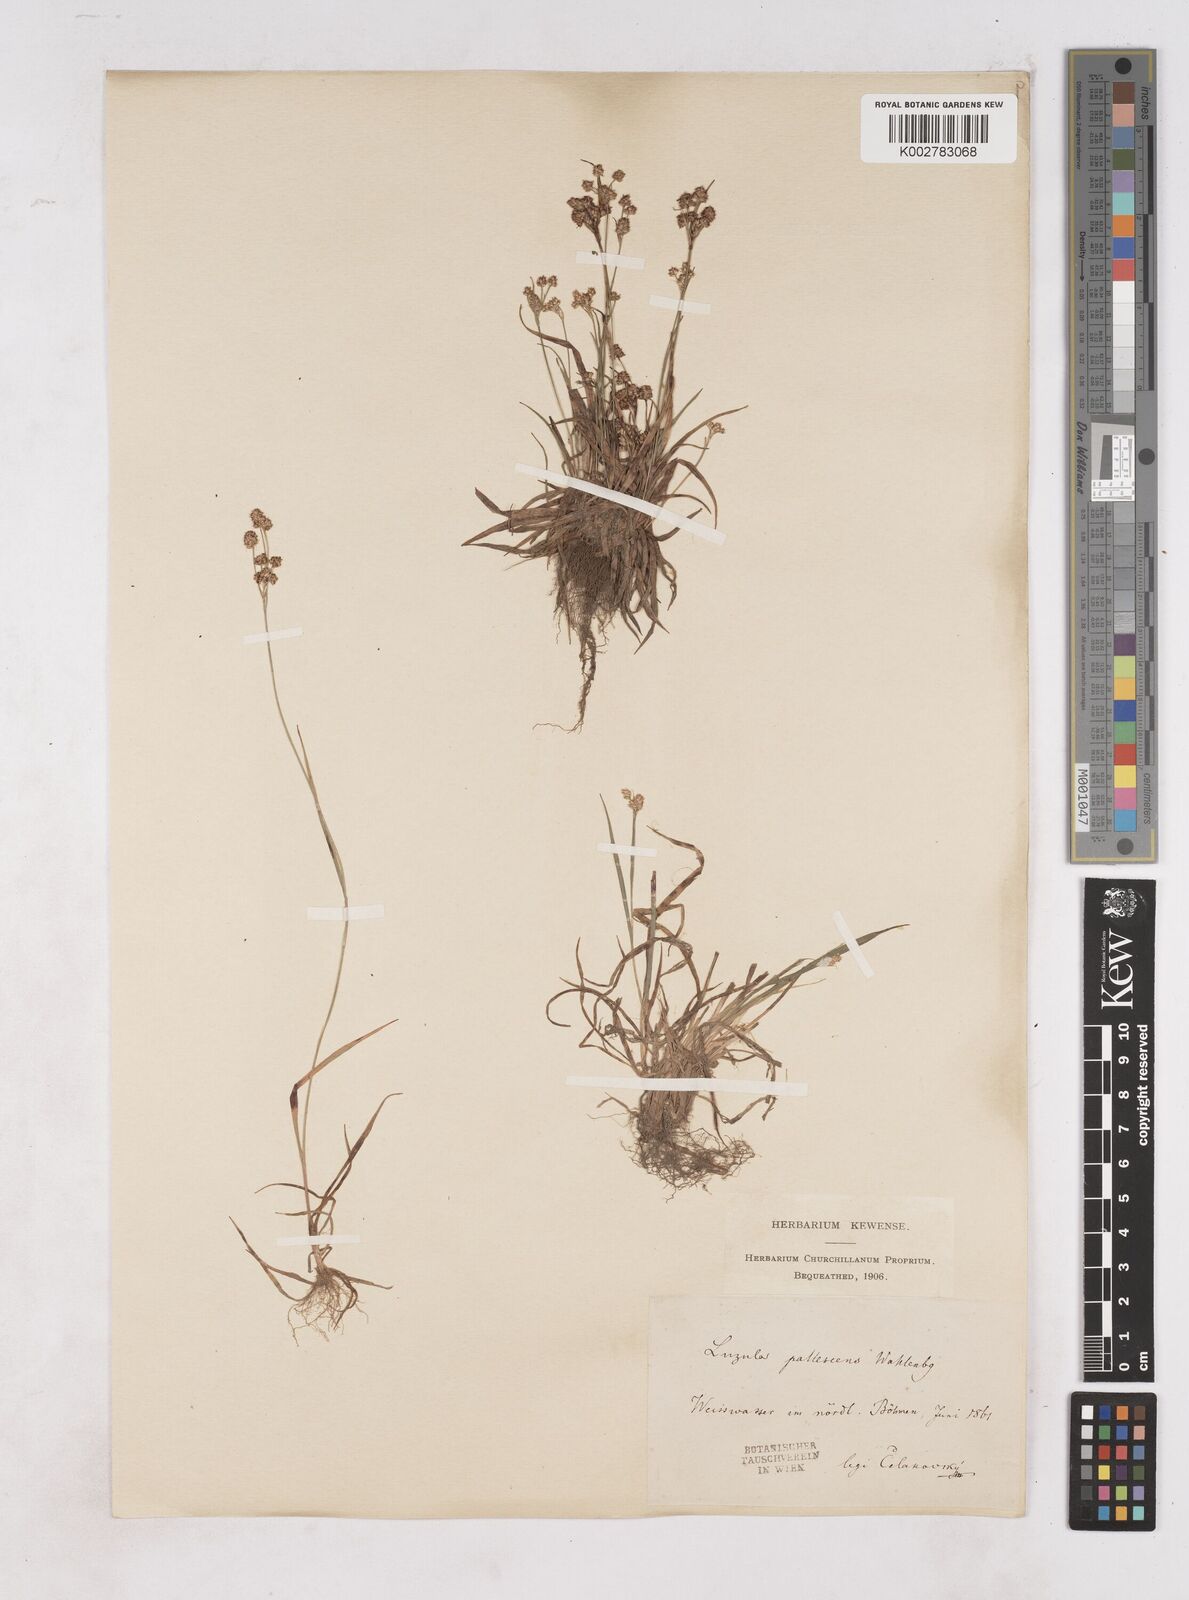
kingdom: Plantae
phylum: Tracheophyta
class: Liliopsida
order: Poales
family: Juncaceae
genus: Luzula
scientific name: Luzula pallescens
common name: Fen wood-rush
